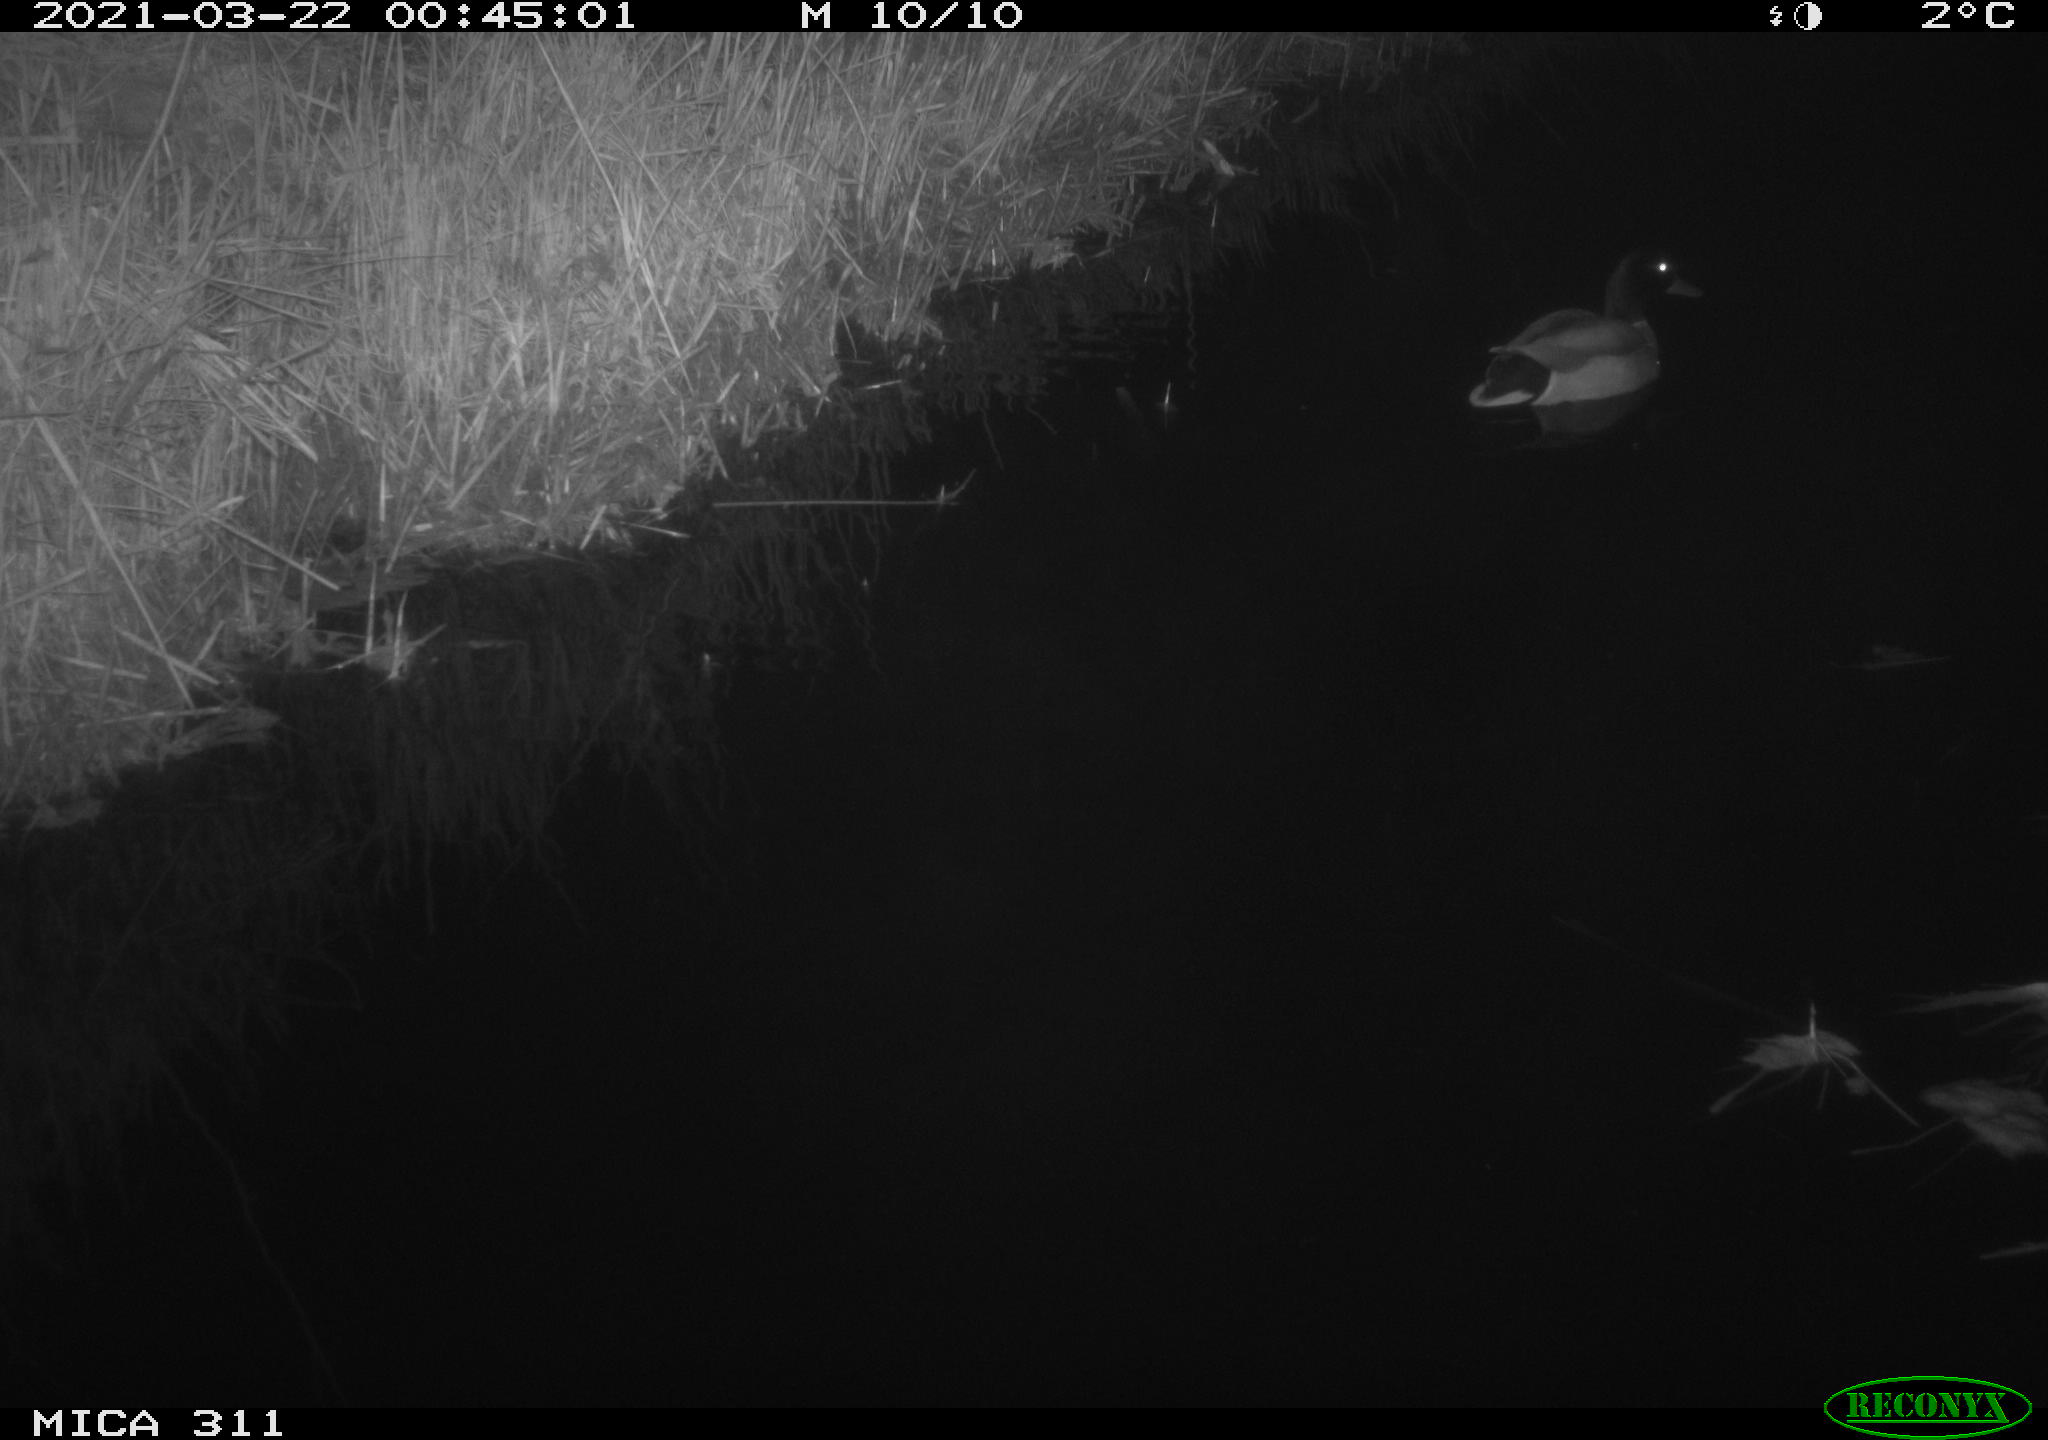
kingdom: Animalia
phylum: Chordata
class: Aves
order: Anseriformes
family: Anatidae
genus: Anas
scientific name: Anas
